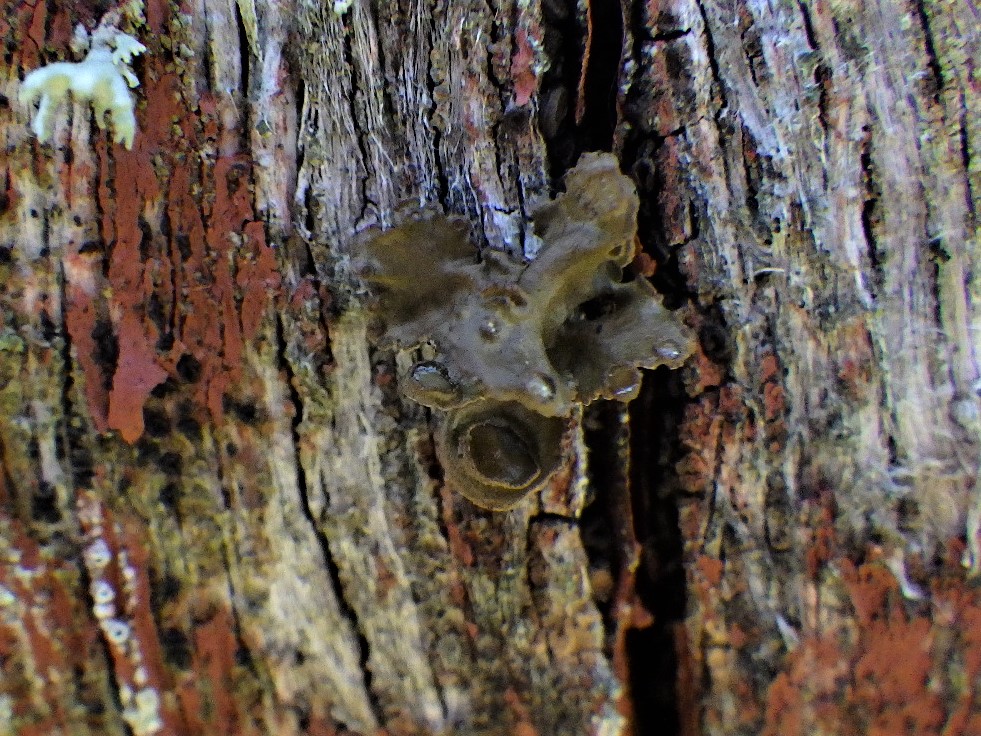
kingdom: Fungi
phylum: Ascomycota
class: Lecanoromycetes
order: Lecanorales
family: Parmeliaceae
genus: Cetraria
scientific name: Cetraria sepincola
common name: tue-kruslav
